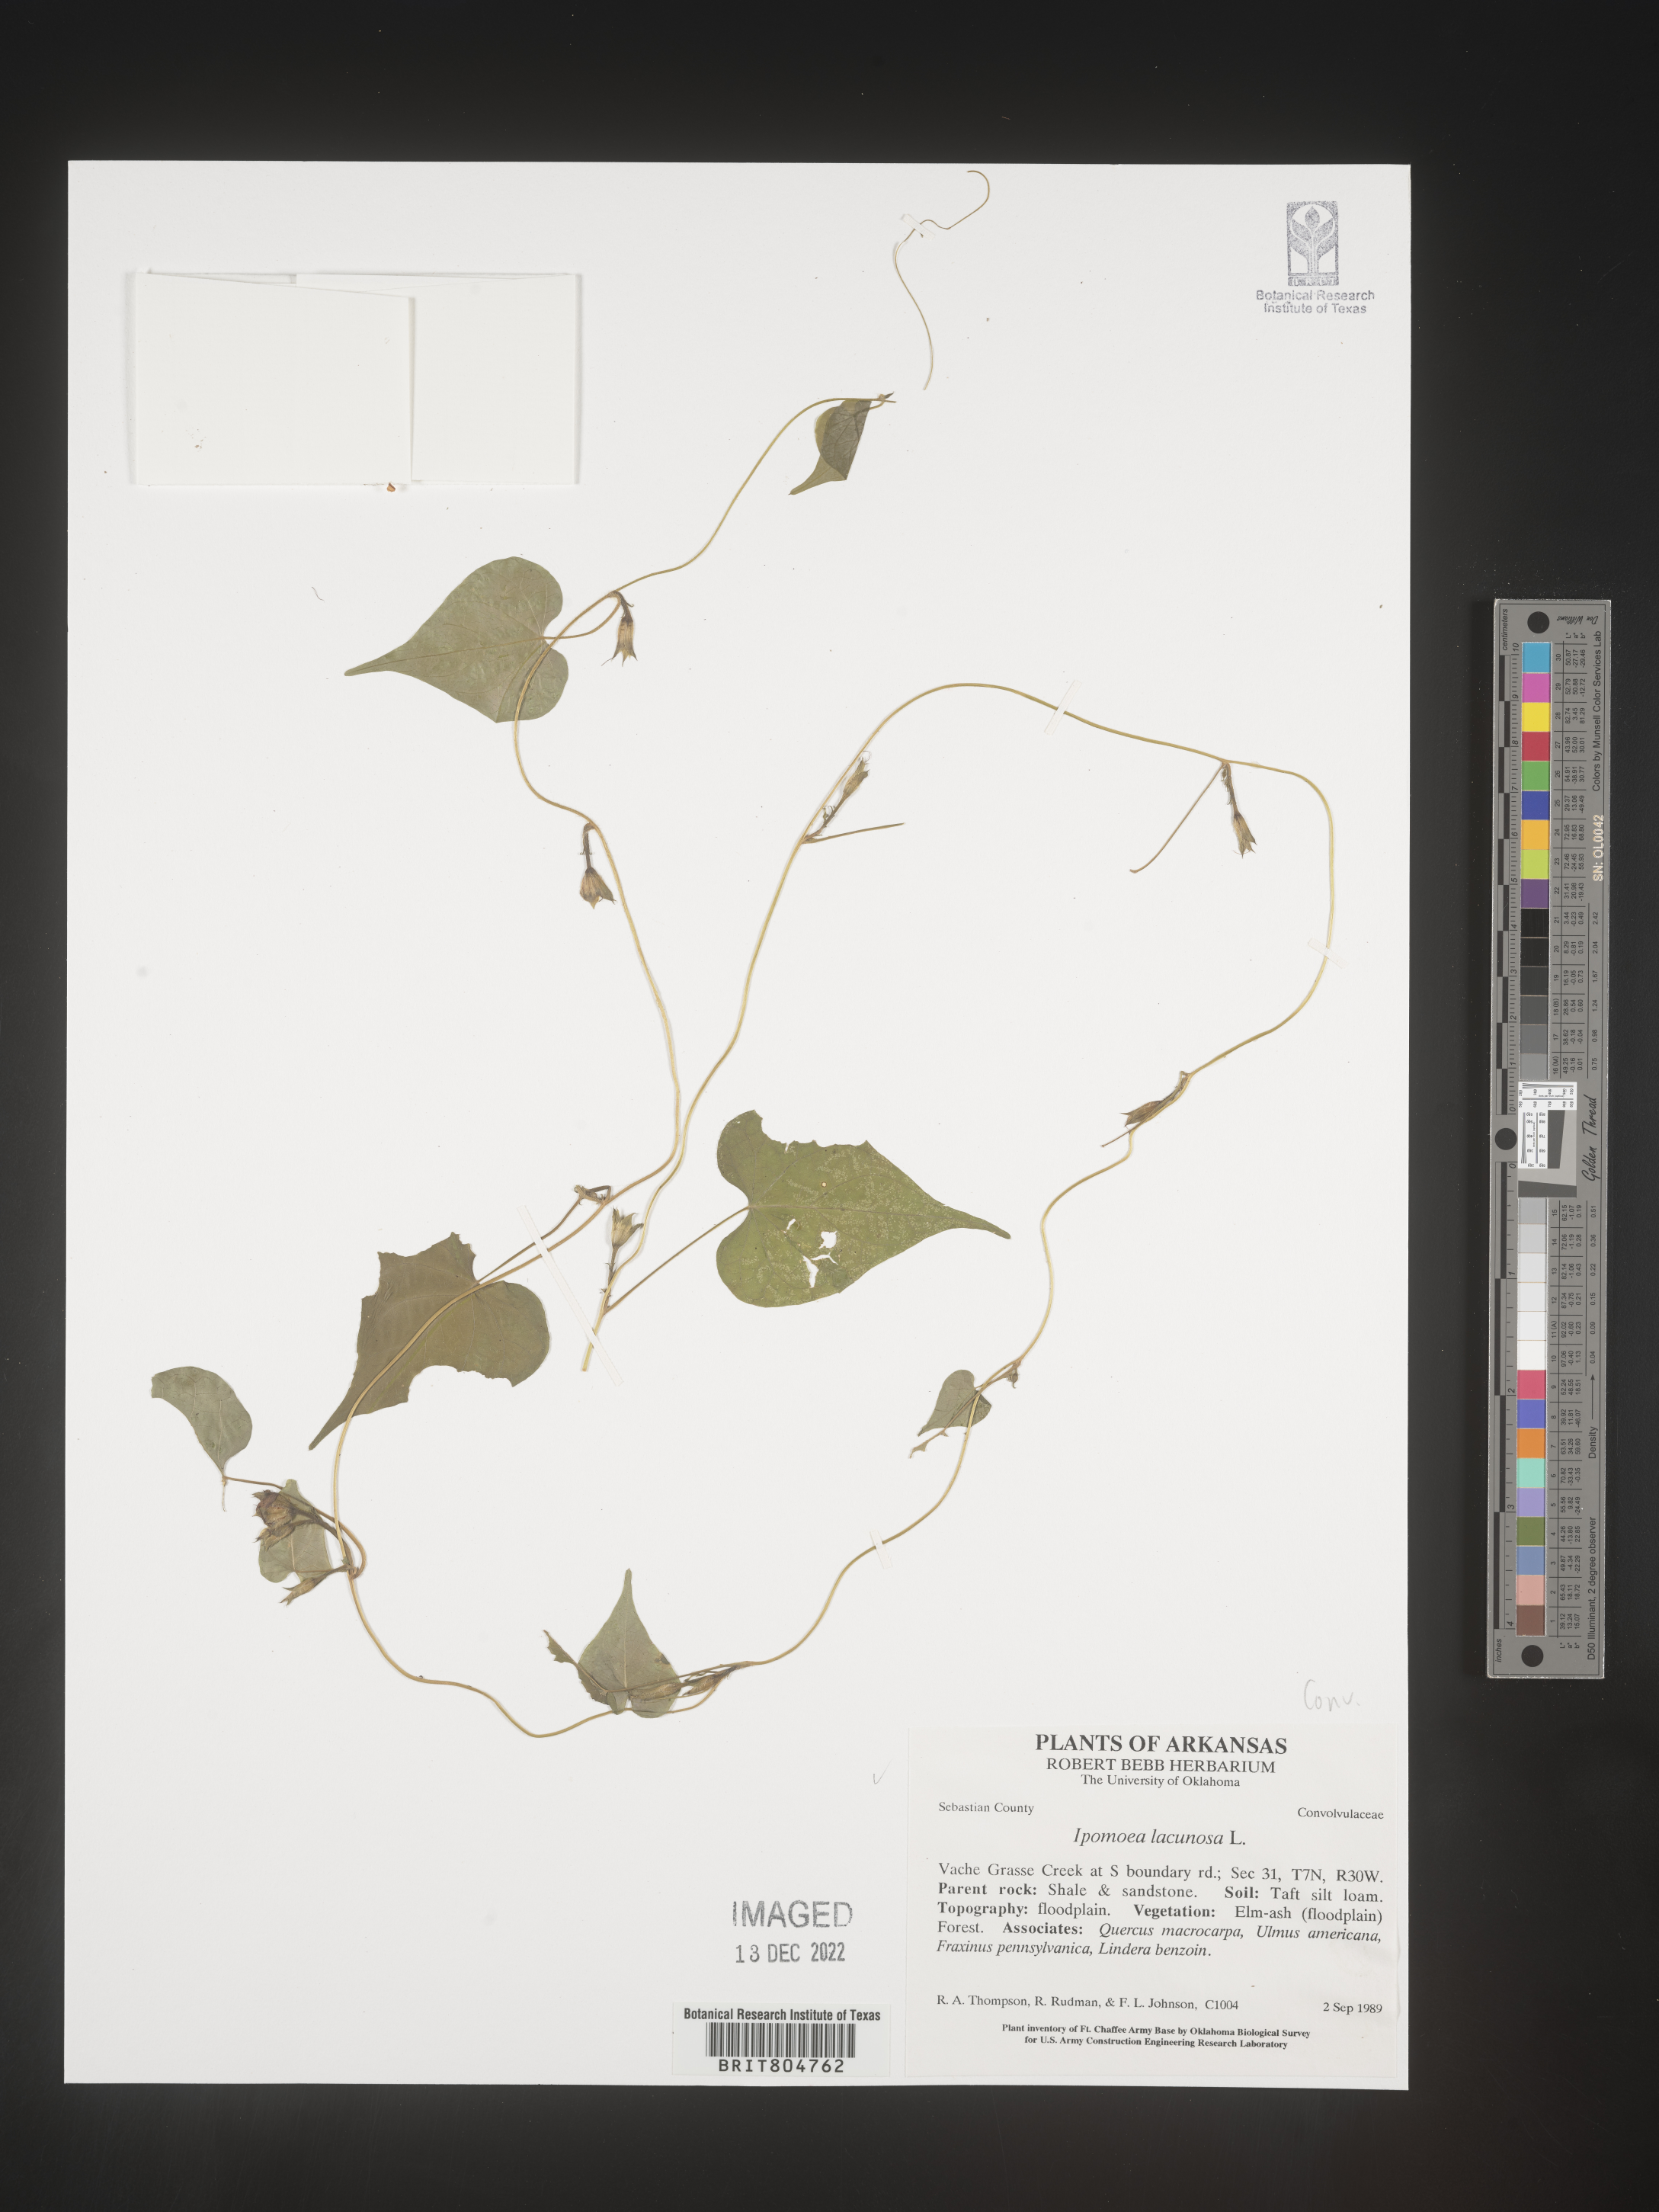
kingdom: Plantae
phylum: Tracheophyta
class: Magnoliopsida
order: Solanales
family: Convolvulaceae
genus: Ipomoea
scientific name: Ipomoea lacunosa
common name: White morning-glory
